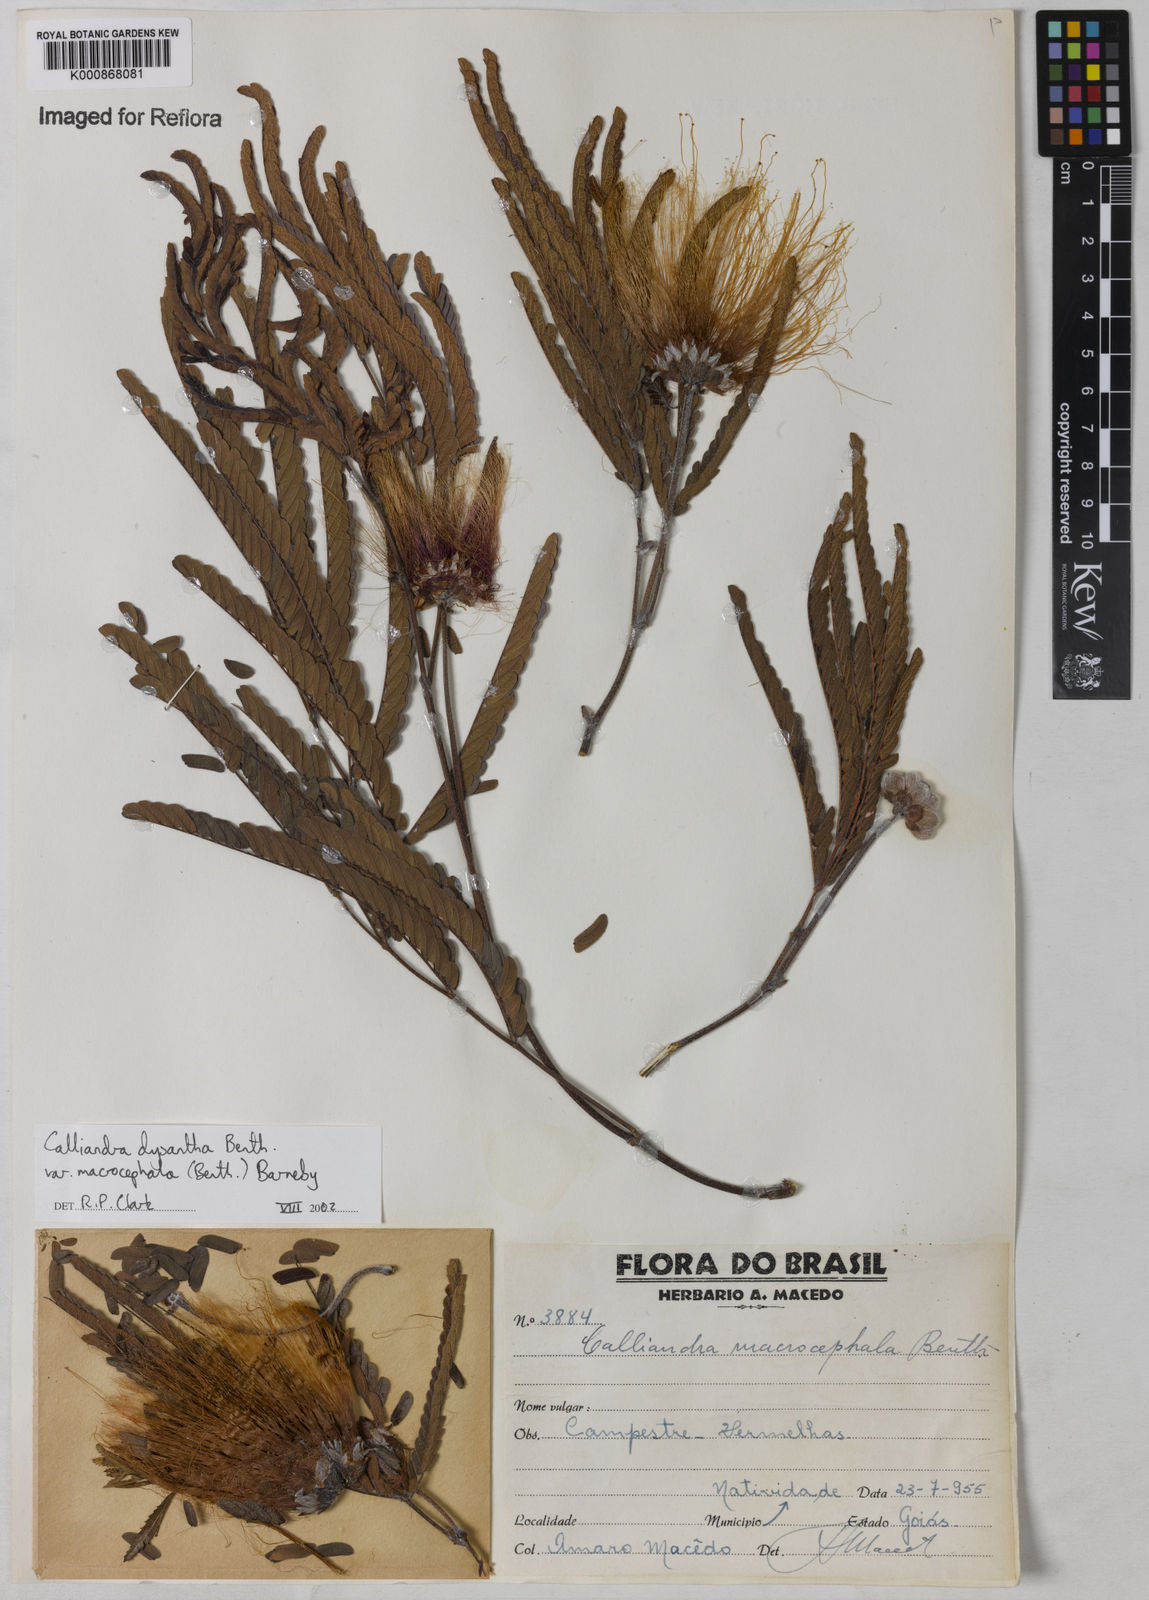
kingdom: Plantae
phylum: Tracheophyta
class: Magnoliopsida
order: Fabales
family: Fabaceae
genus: Calliandra
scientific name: Calliandra dysantha
